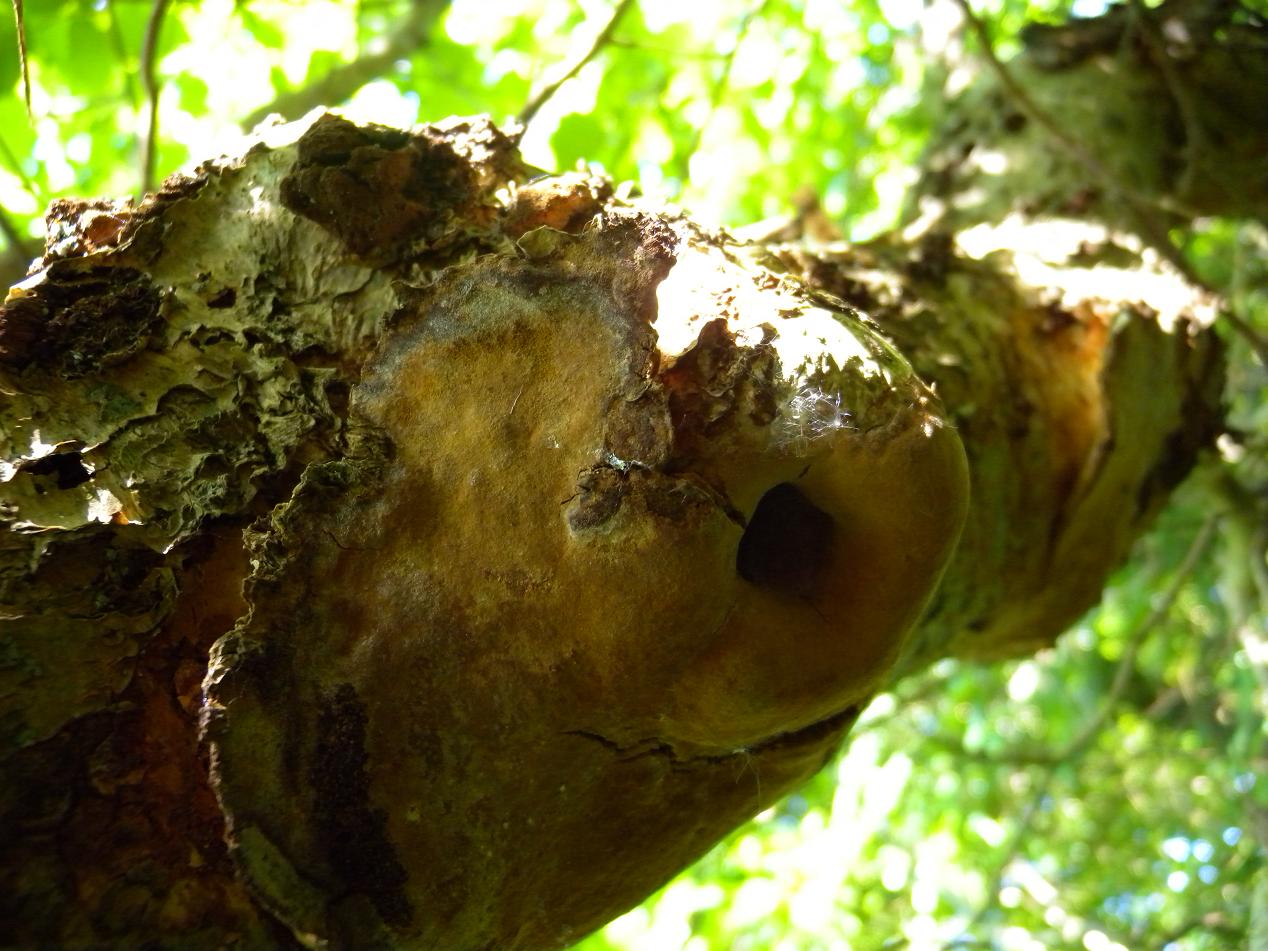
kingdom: Fungi
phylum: Basidiomycota
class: Agaricomycetes
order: Hymenochaetales
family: Hymenochaetaceae
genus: Fuscoporia
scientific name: Fuscoporia ferrea
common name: skorpe-ildporesvamp
